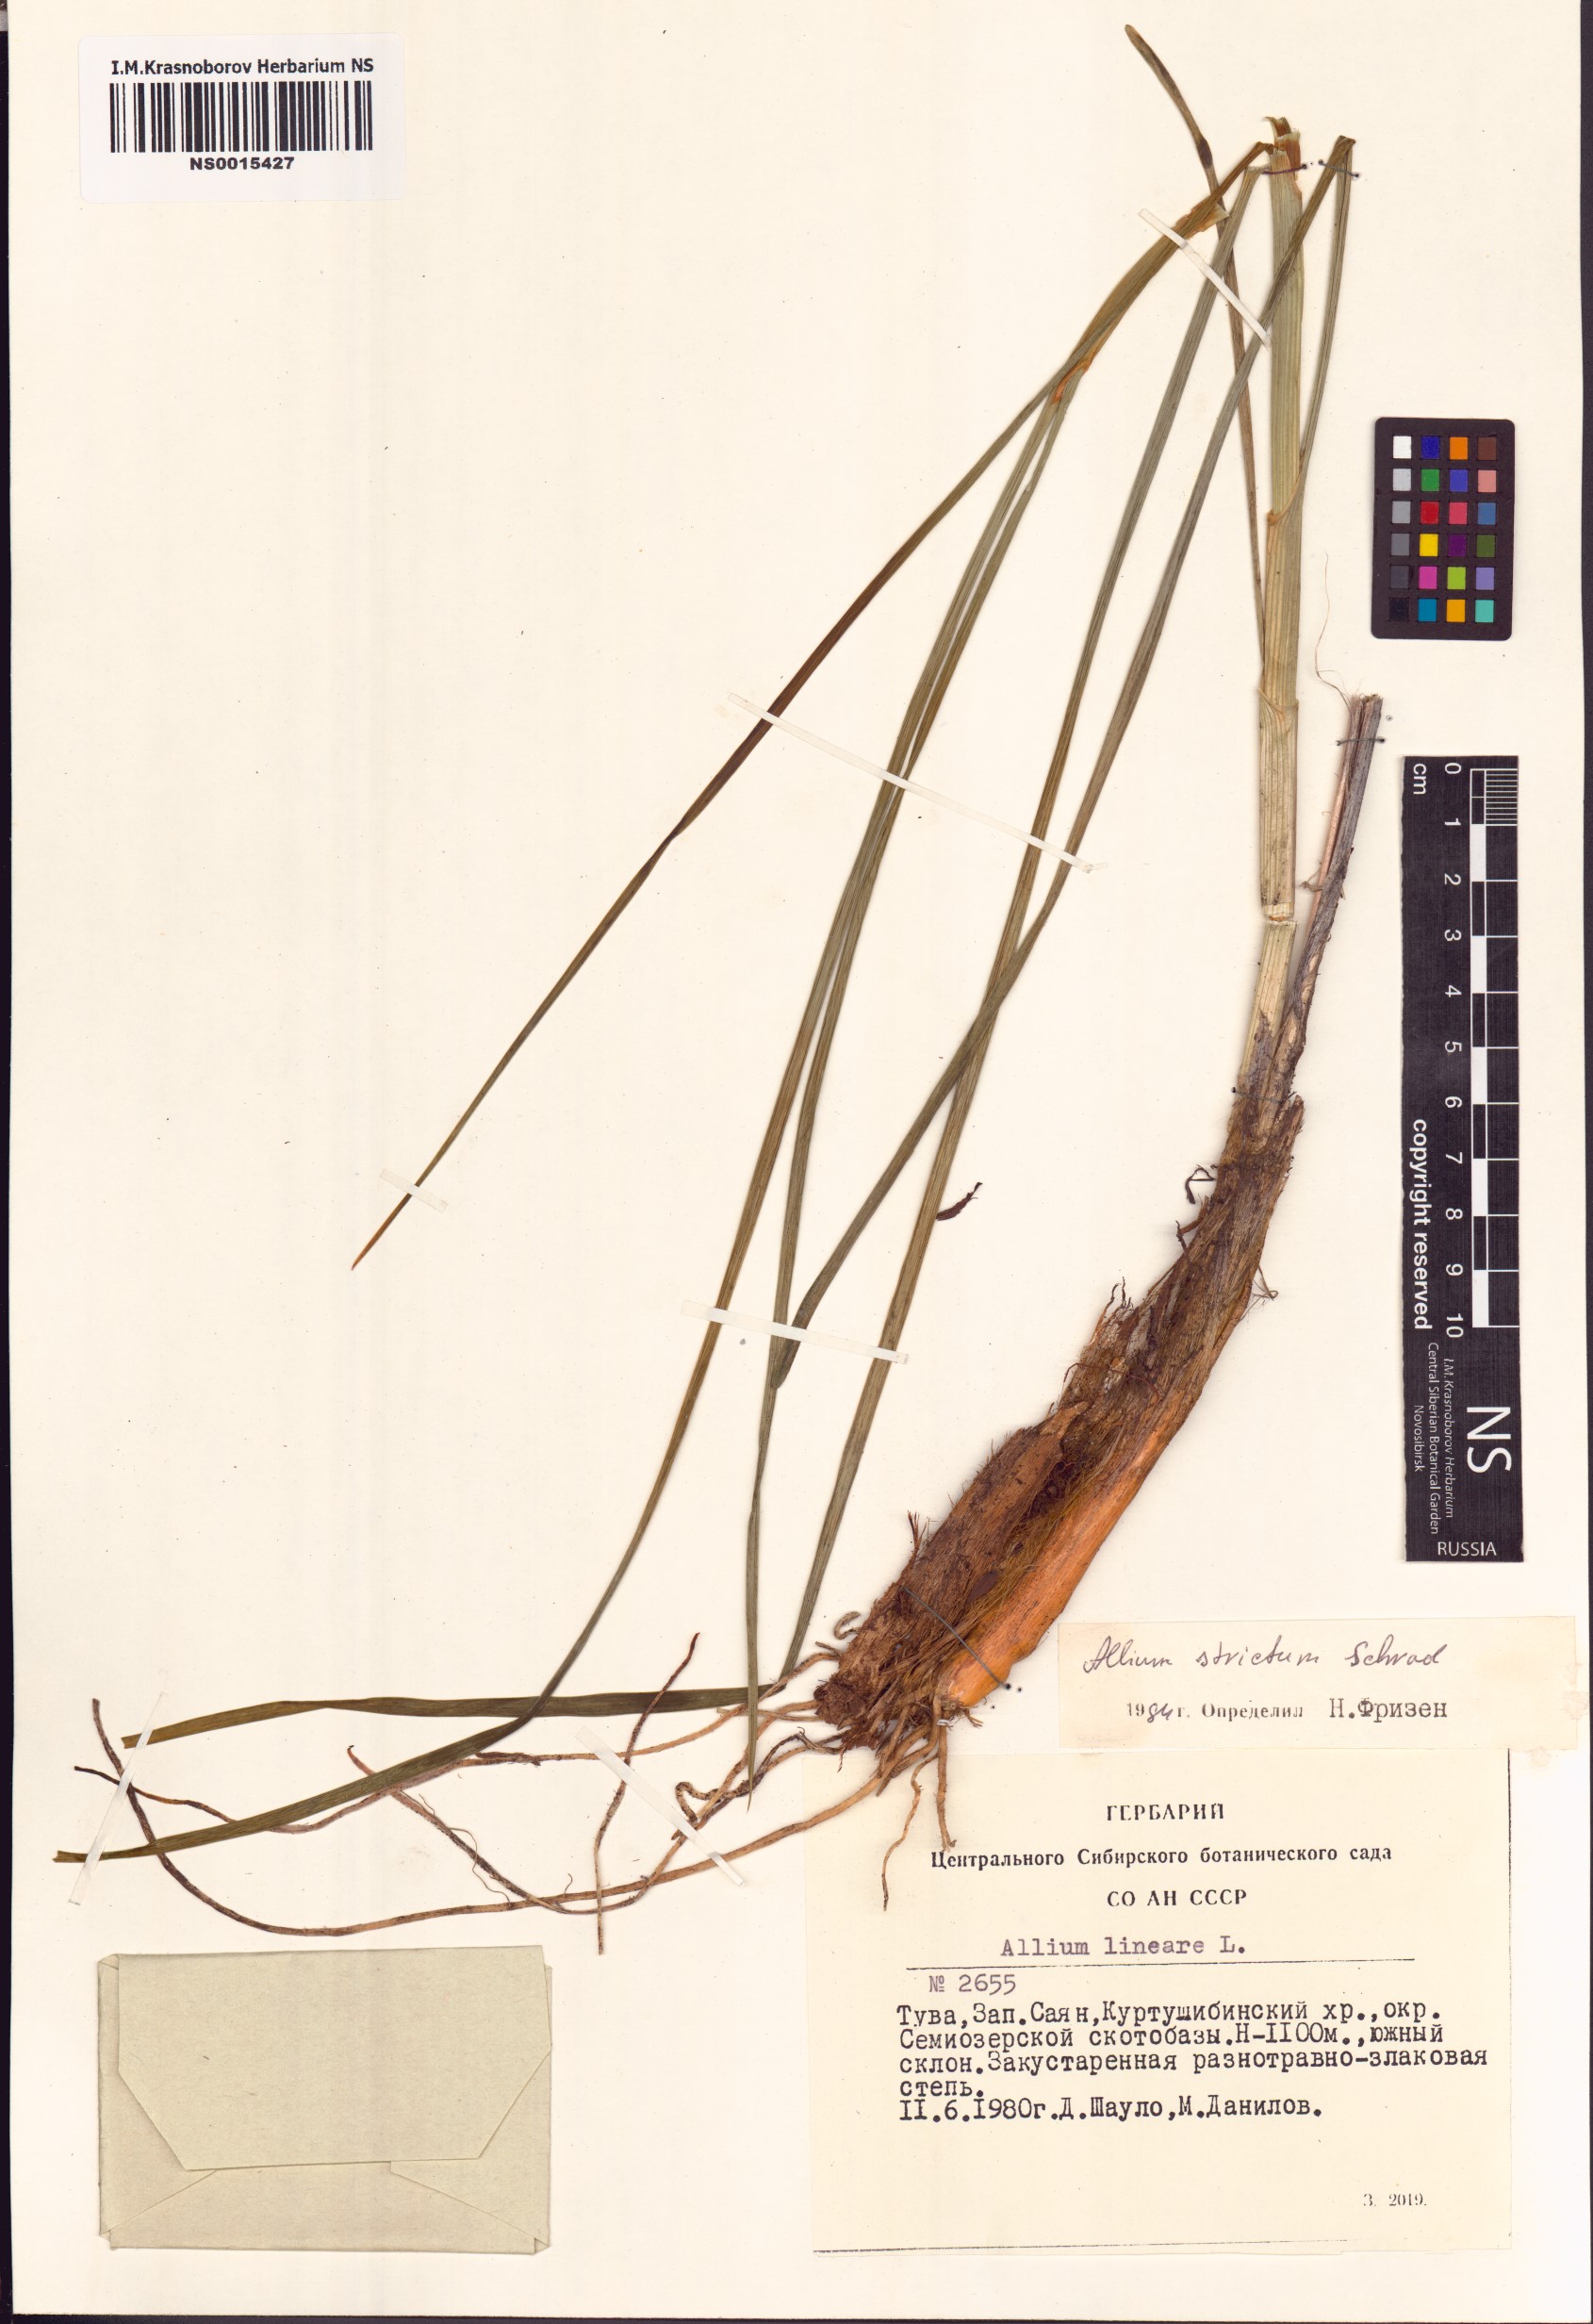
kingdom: Plantae
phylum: Tracheophyta
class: Liliopsida
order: Asparagales
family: Amaryllidaceae
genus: Allium
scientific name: Allium strictum
